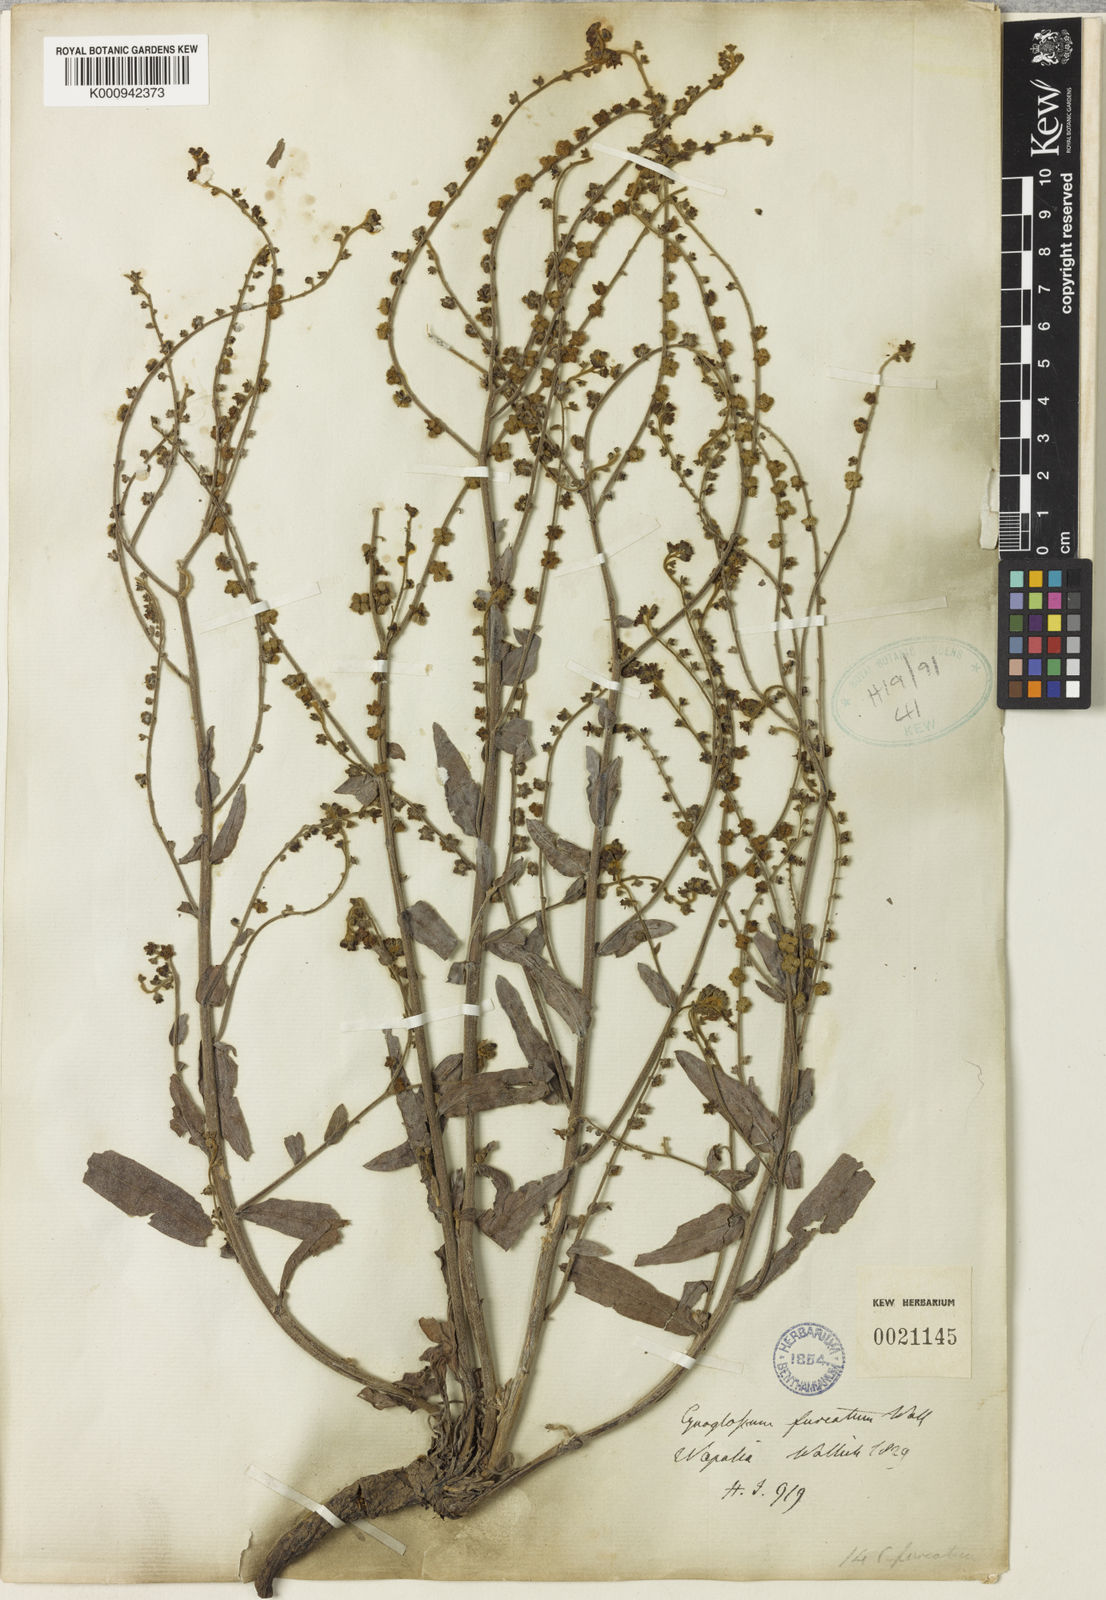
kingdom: Plantae
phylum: Tracheophyta
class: Magnoliopsida
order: Boraginales
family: Boraginaceae
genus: Rochelia
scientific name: Rochelia zeylanica
